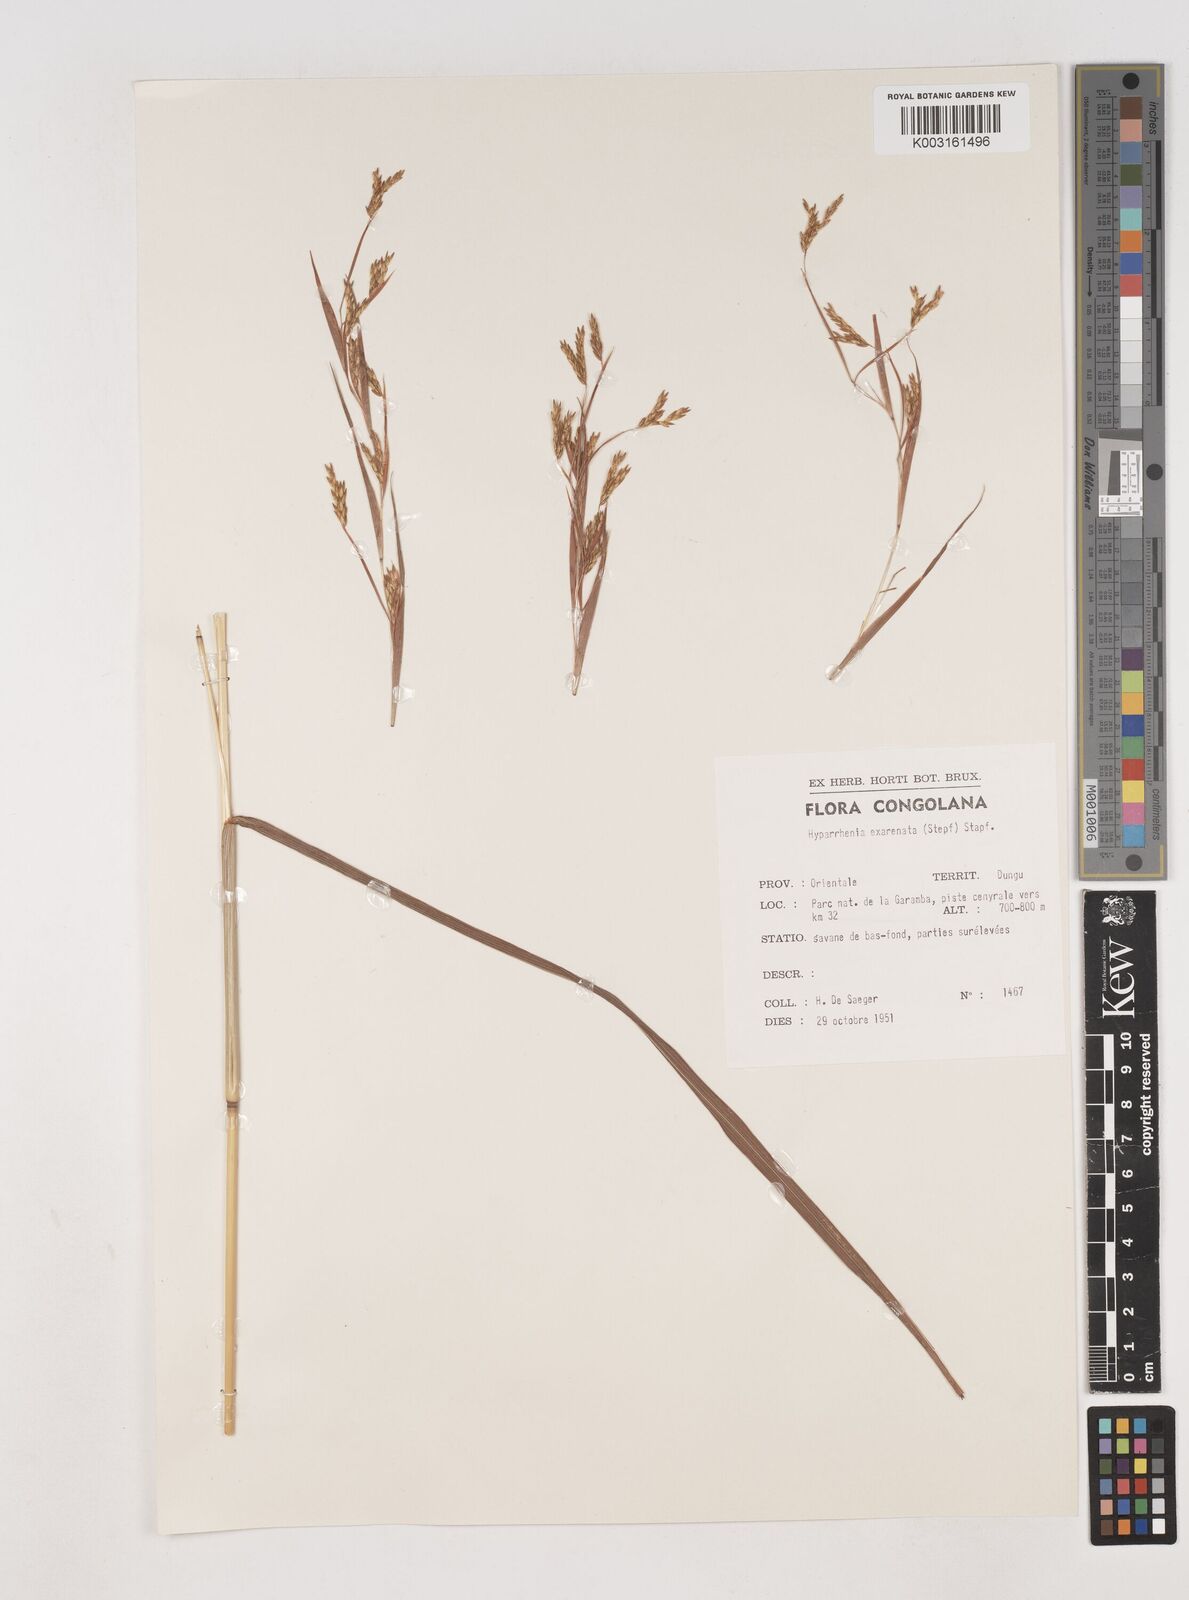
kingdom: Plantae
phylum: Tracheophyta
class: Liliopsida
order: Poales
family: Poaceae
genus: Hyparrhenia
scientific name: Hyparrhenia exarmata
